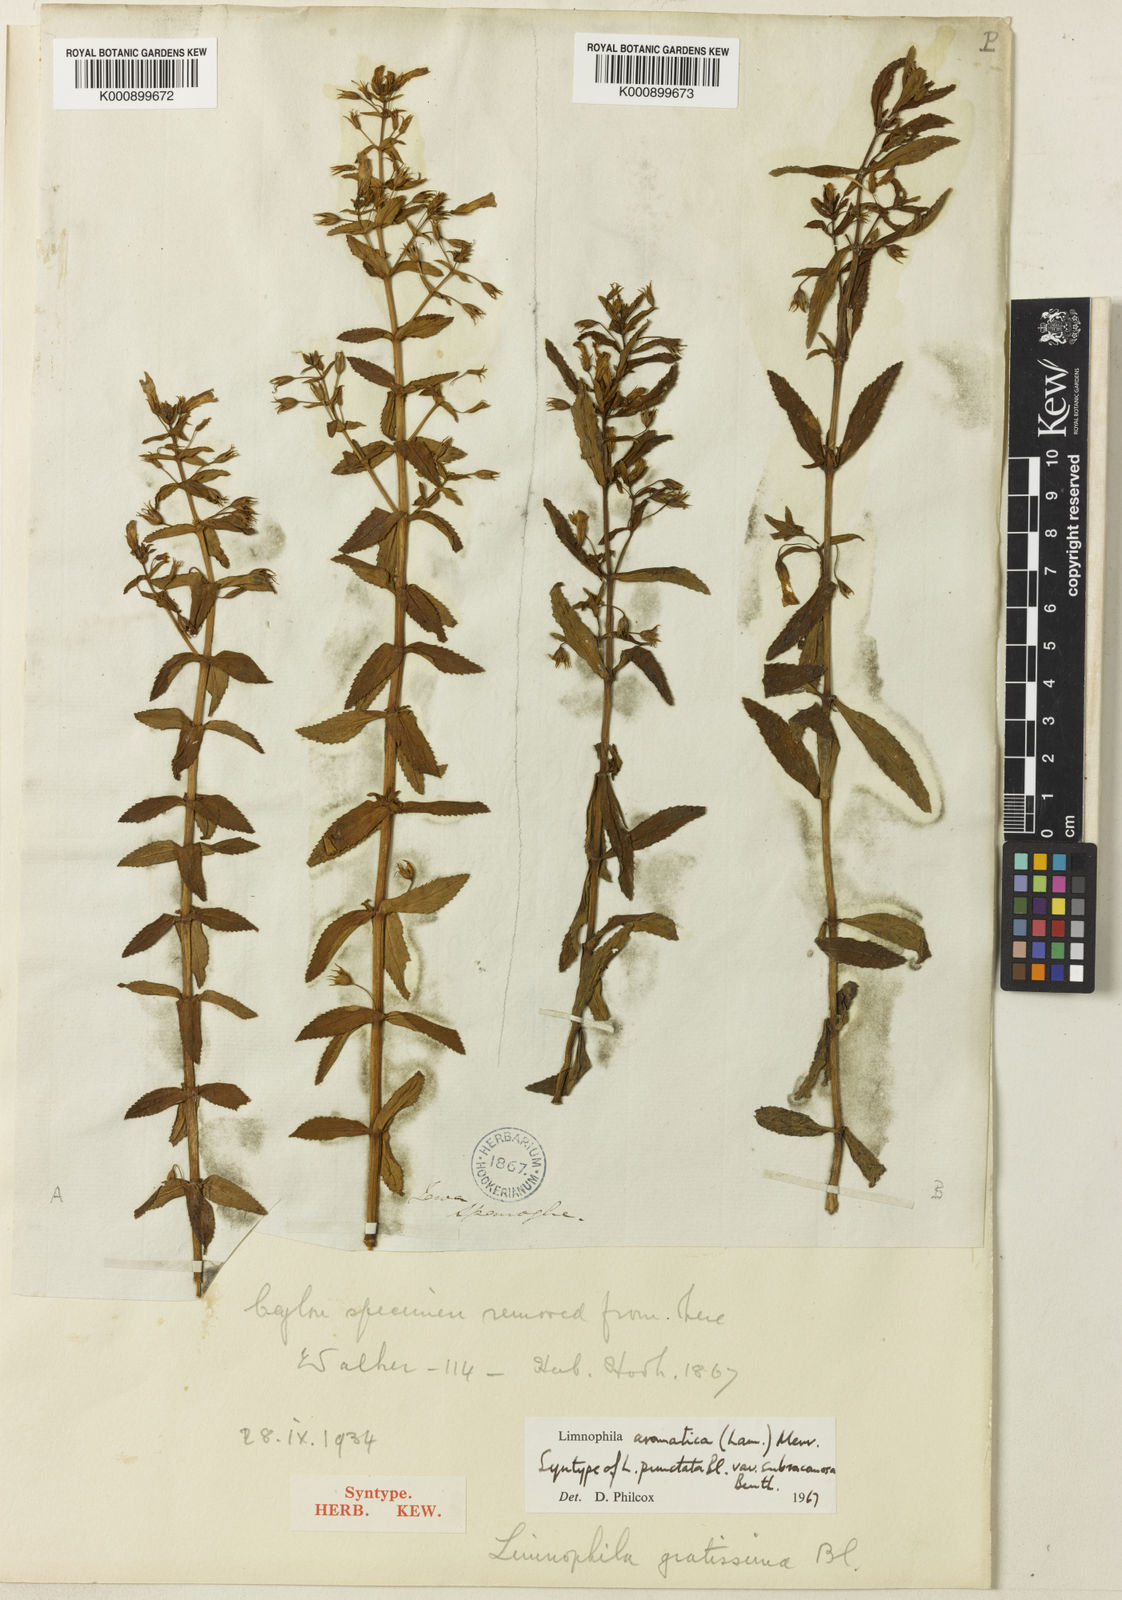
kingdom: Plantae
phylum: Tracheophyta
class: Magnoliopsida
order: Lamiales
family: Plantaginaceae
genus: Limnophila
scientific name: Limnophila aromatica
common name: Finger grass
